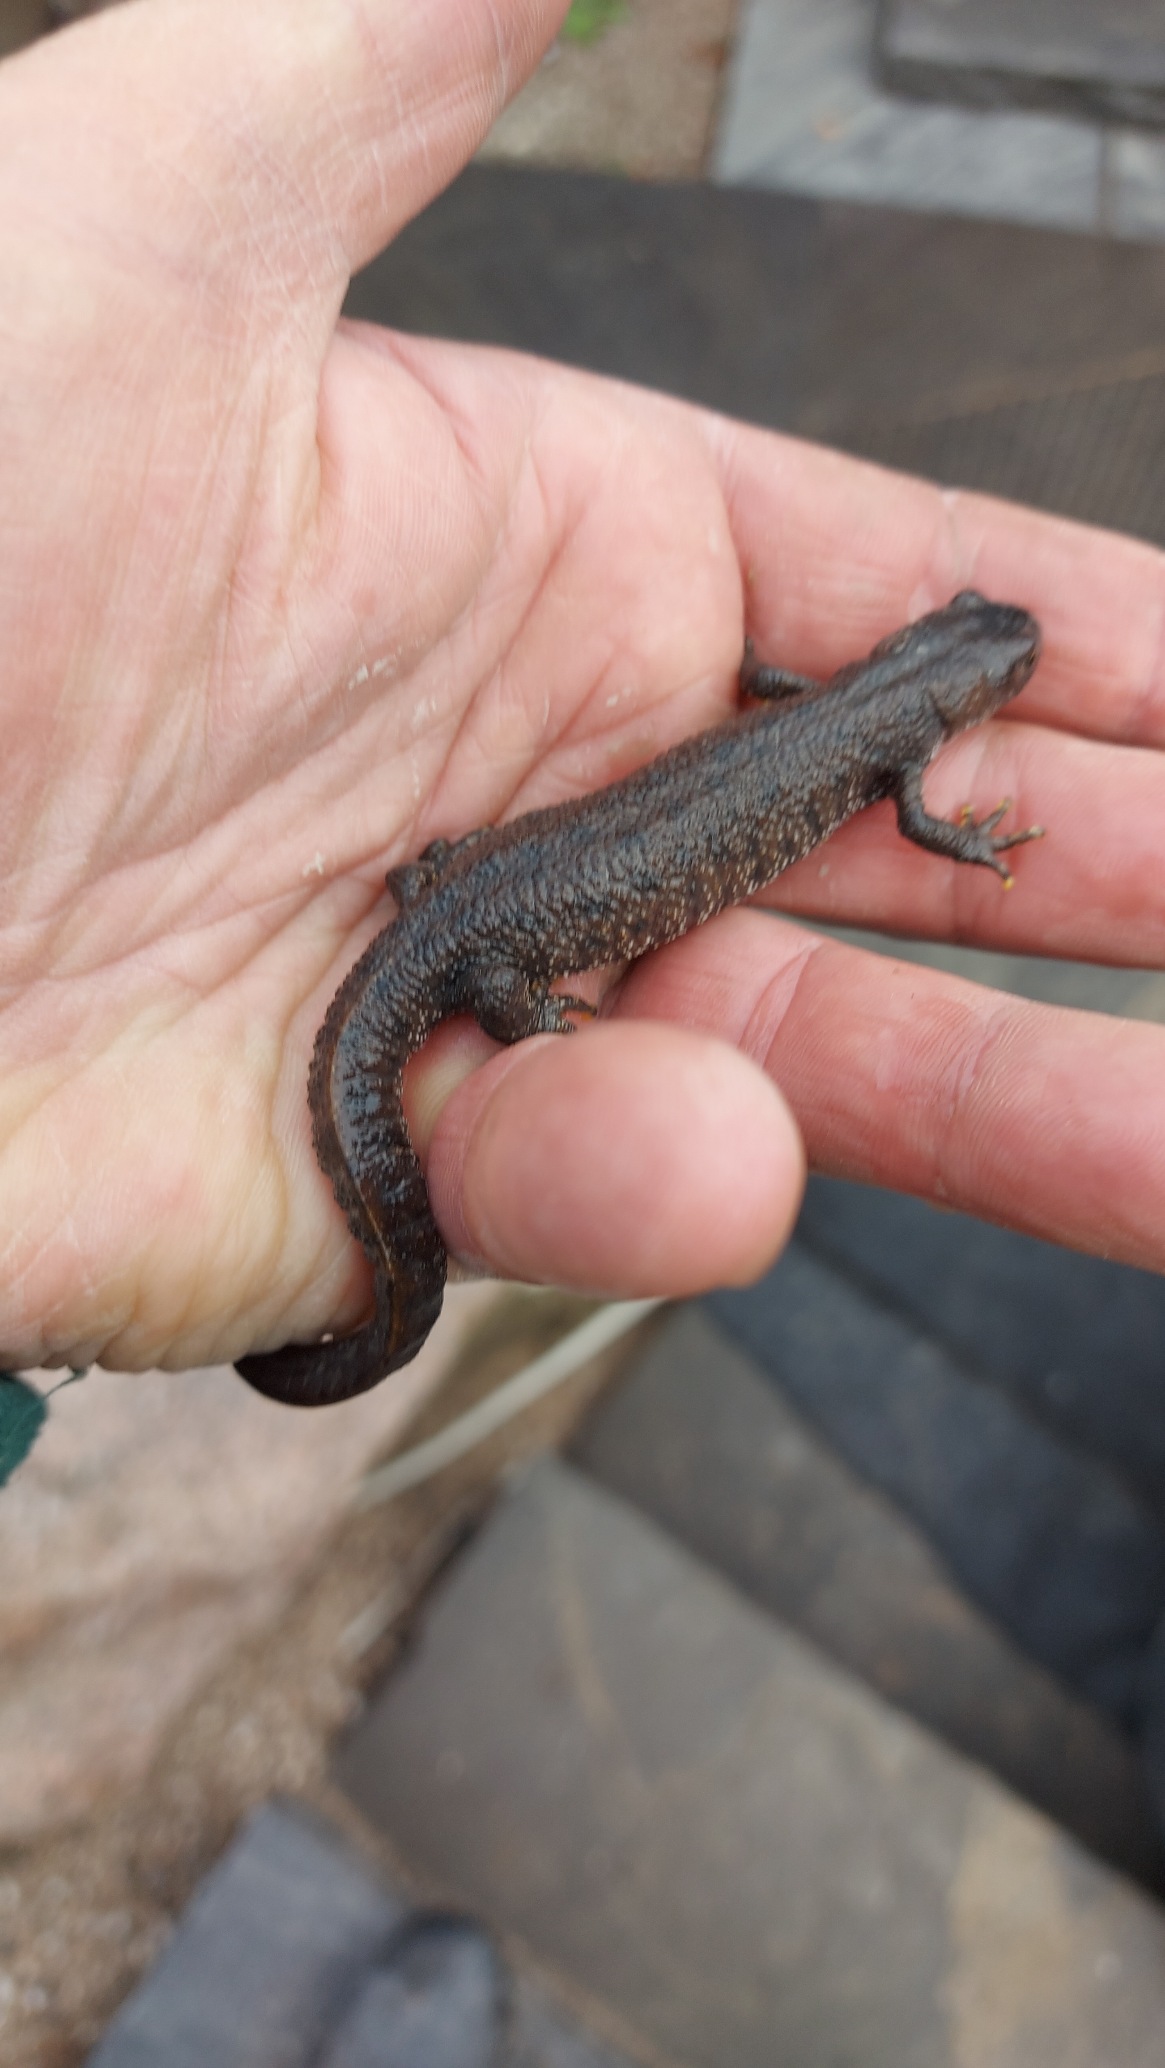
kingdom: Animalia
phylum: Chordata
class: Amphibia
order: Caudata
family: Salamandridae
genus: Triturus
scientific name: Triturus cristatus
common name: Stor vandsalamander
